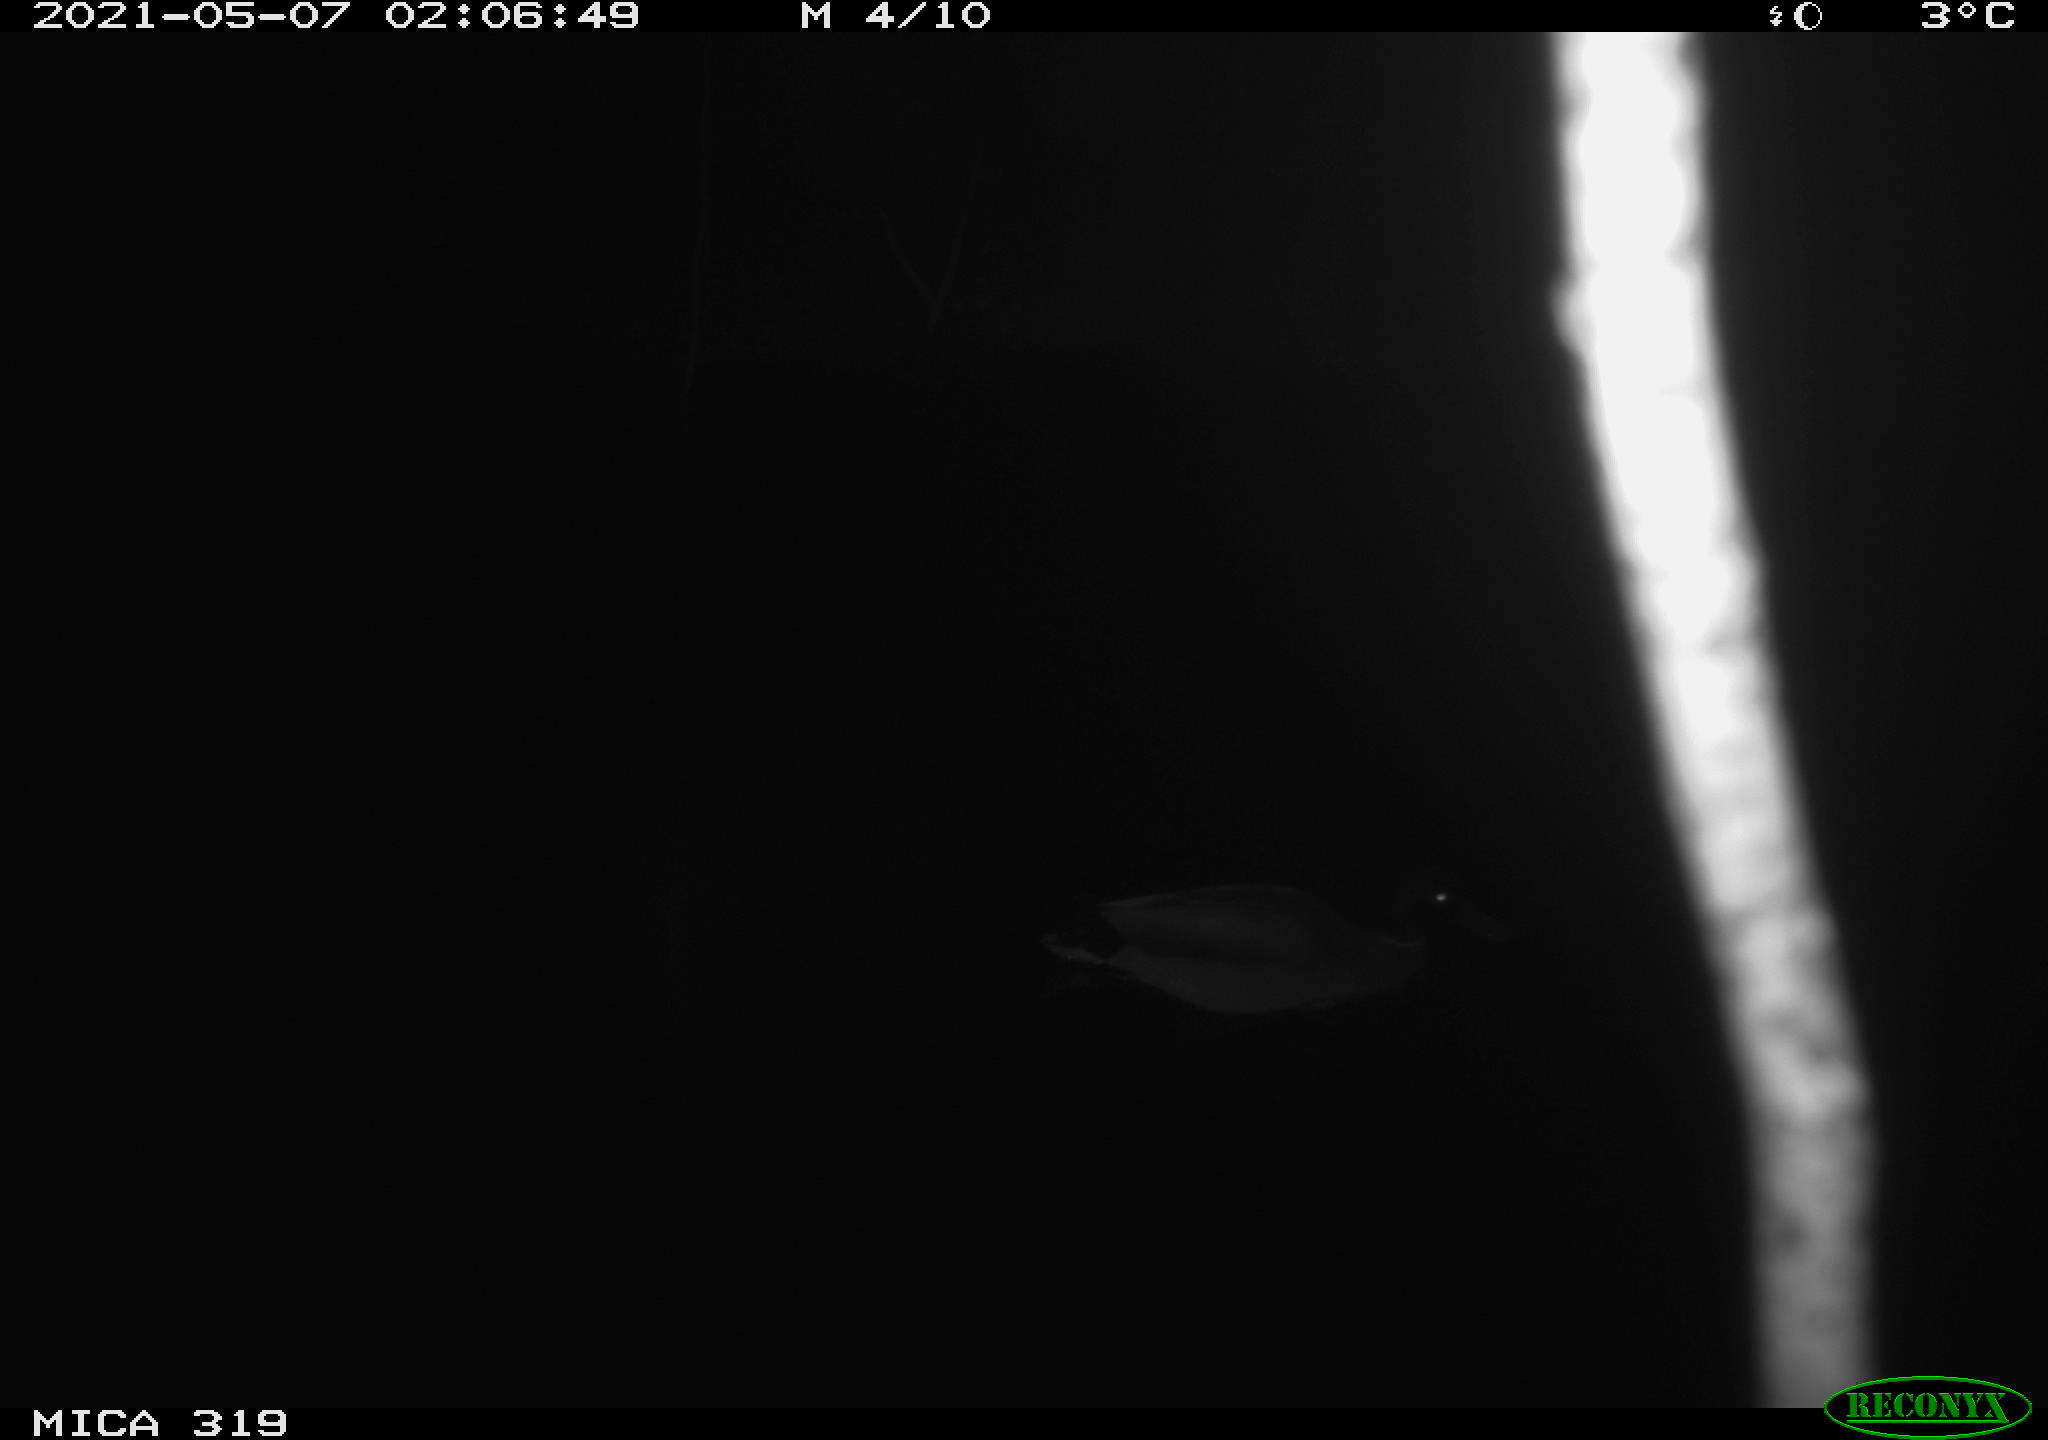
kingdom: Animalia
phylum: Chordata
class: Aves
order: Anseriformes
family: Anatidae
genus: Anas
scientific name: Anas platyrhynchos
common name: Mallard
